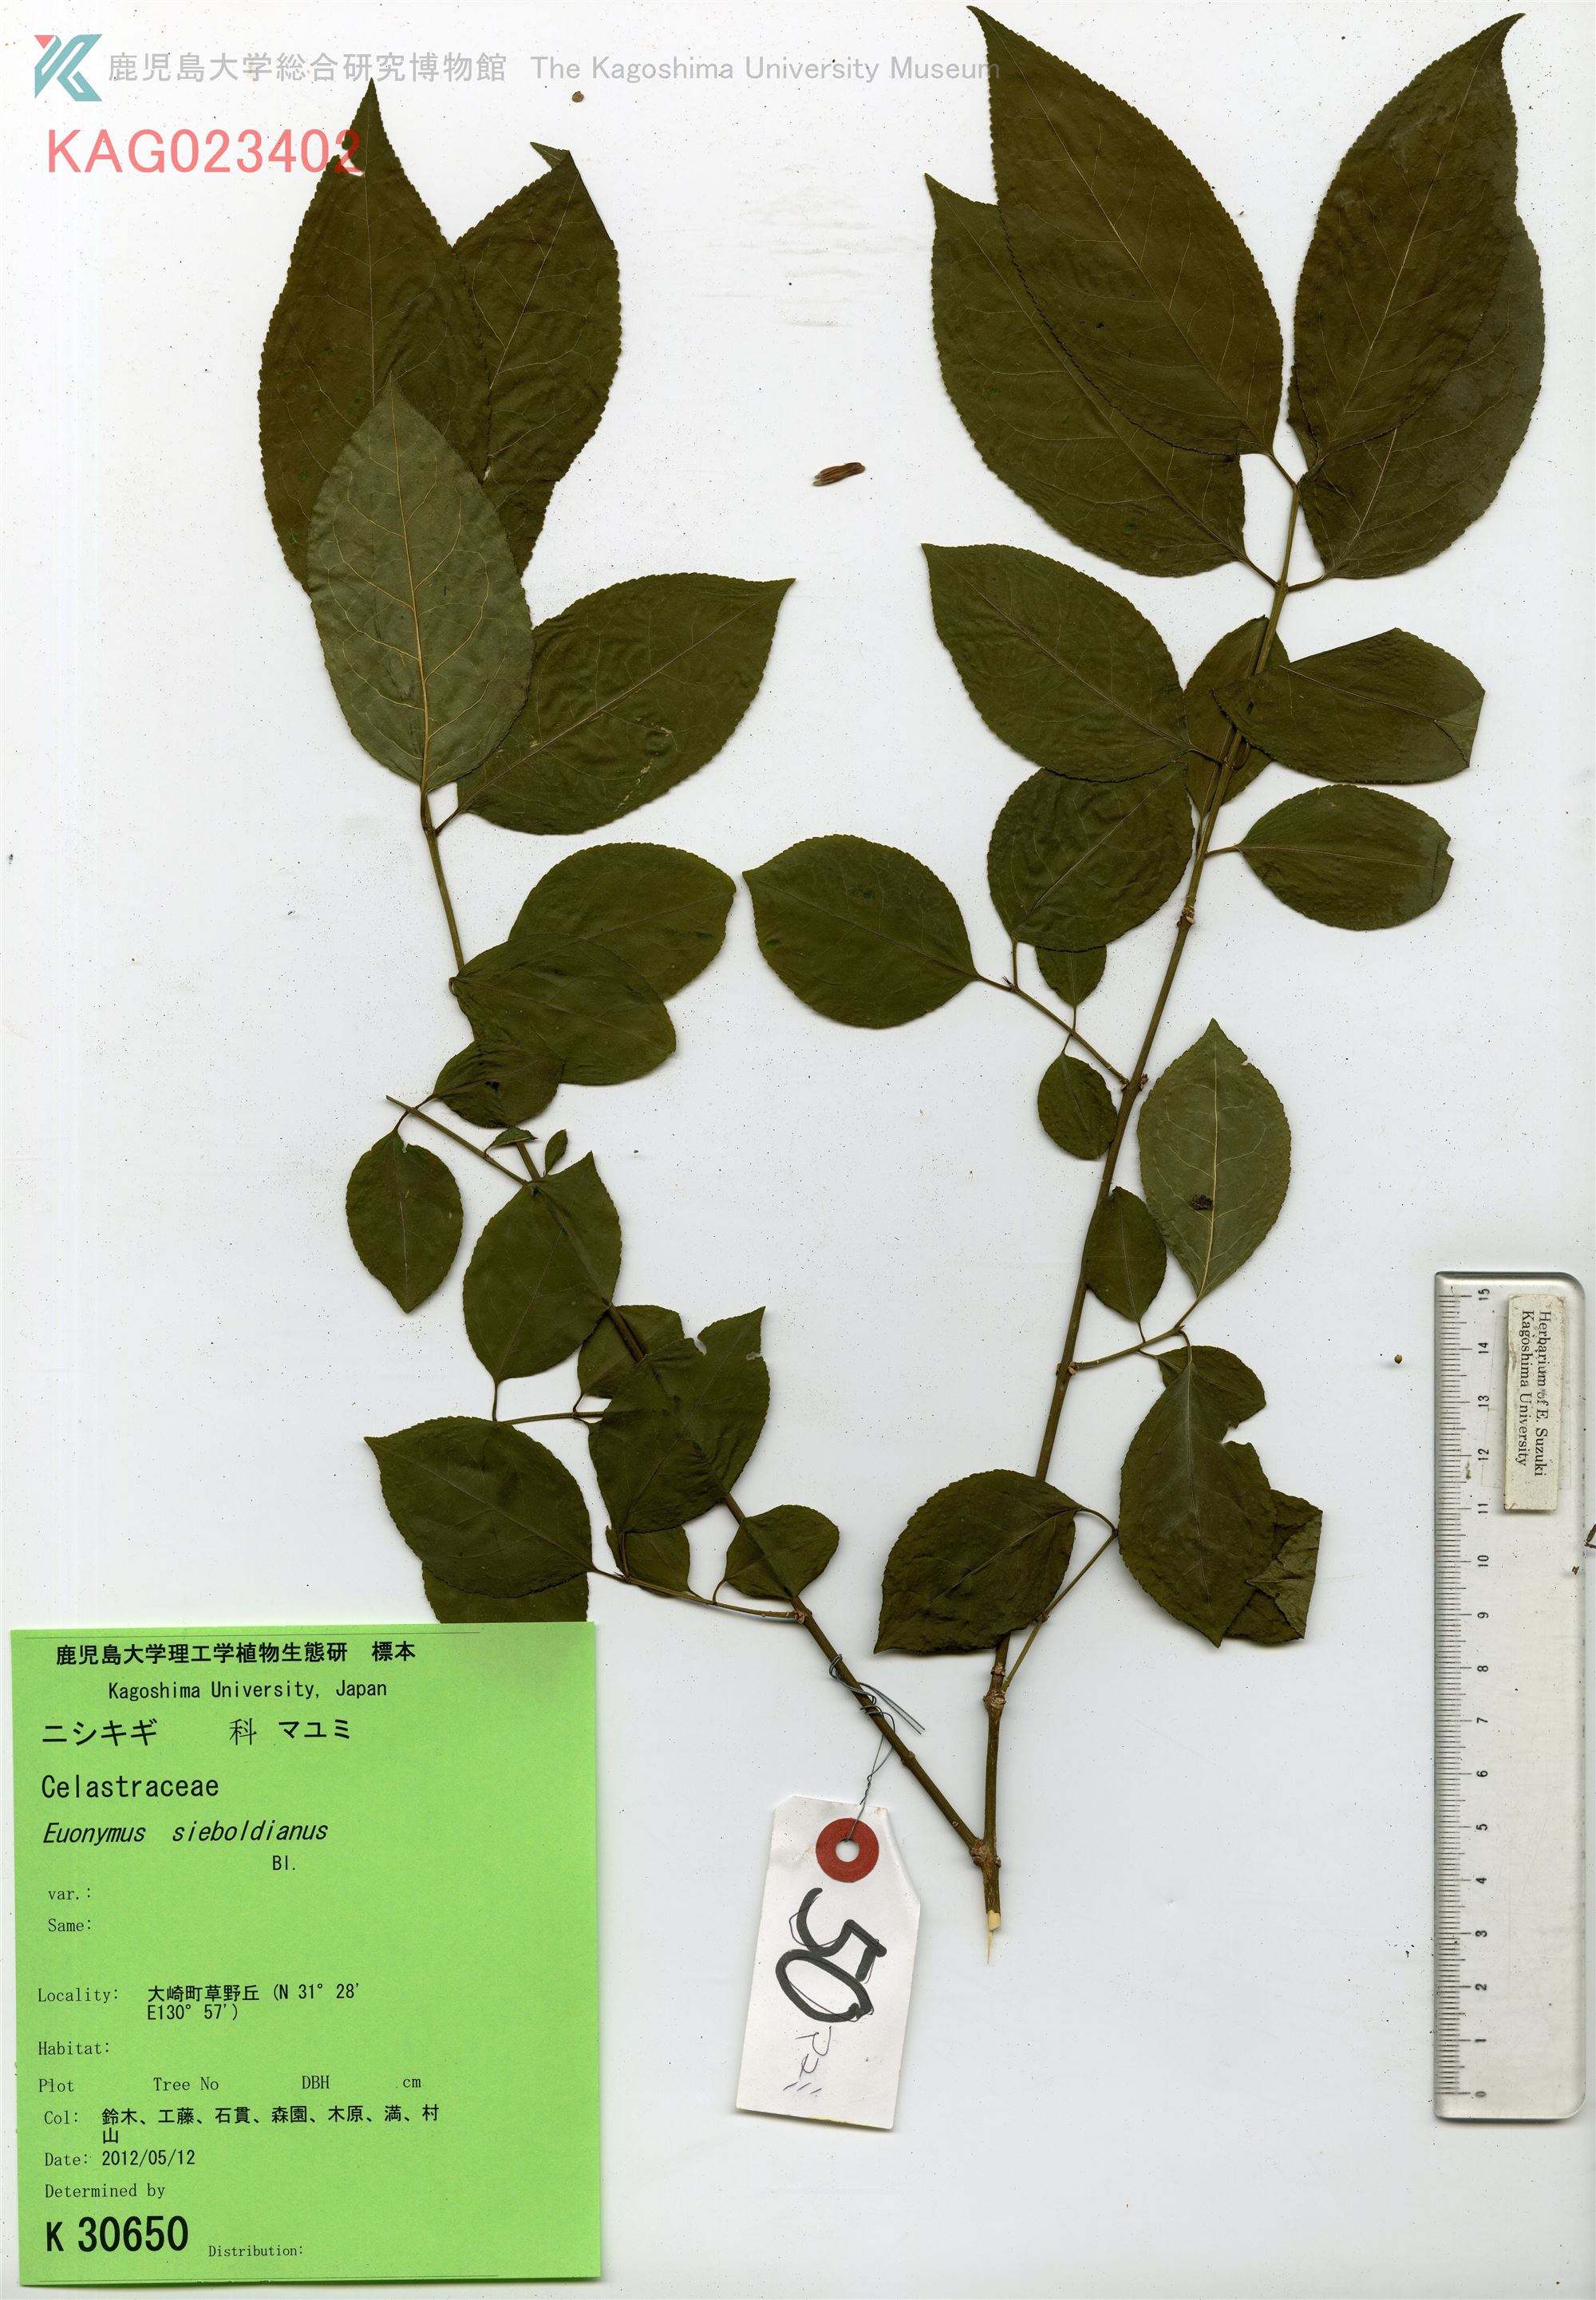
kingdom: Plantae
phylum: Tracheophyta
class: Magnoliopsida
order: Celastrales
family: Celastraceae
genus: Euonymus
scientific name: Euonymus hamiltonianus
